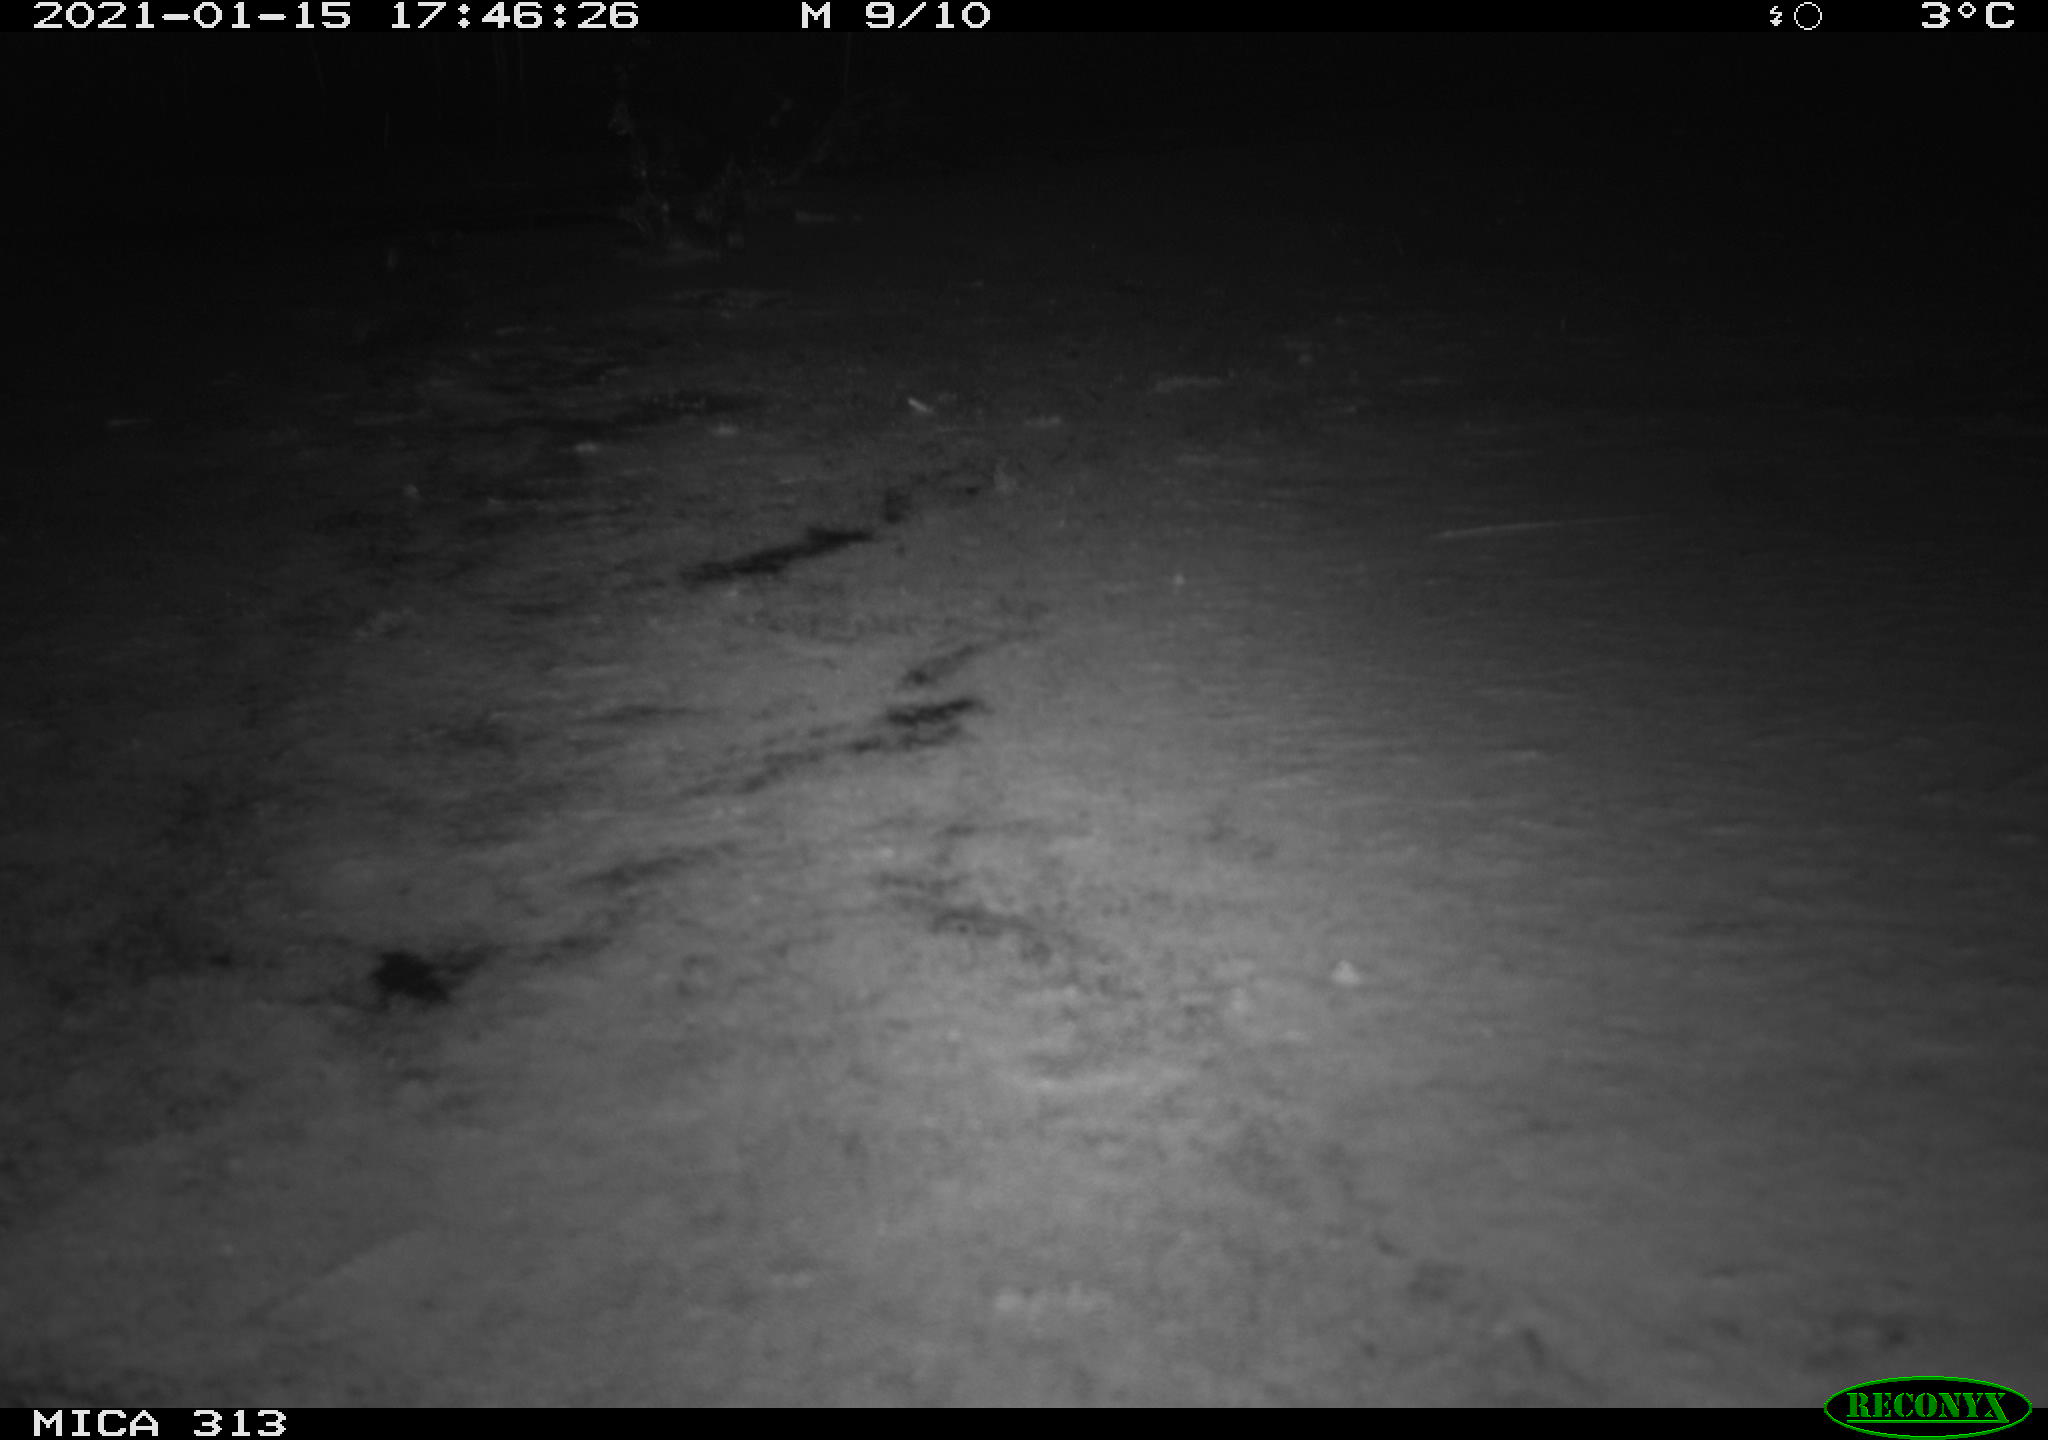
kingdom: Animalia
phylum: Chordata
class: Aves
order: Gruiformes
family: Rallidae
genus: Gallinula
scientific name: Gallinula chloropus
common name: Common moorhen
